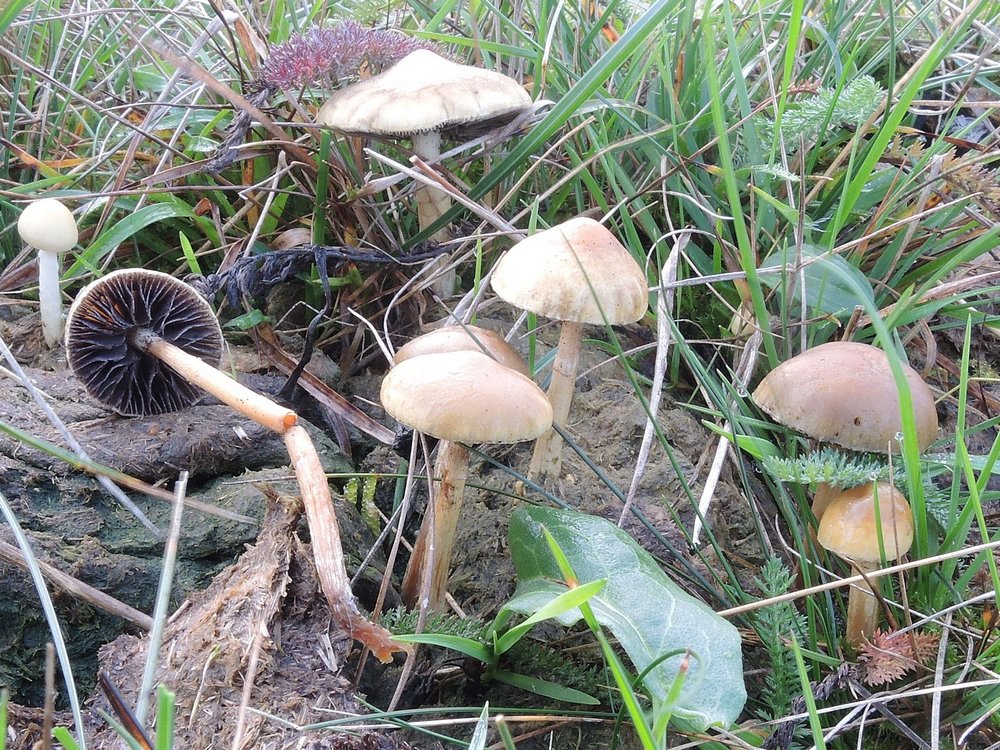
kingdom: Fungi
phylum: Basidiomycota
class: Agaricomycetes
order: Agaricales
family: Strophariaceae
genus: Protostropharia
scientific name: Protostropharia semiglobata
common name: halvkugleformet bredblad
